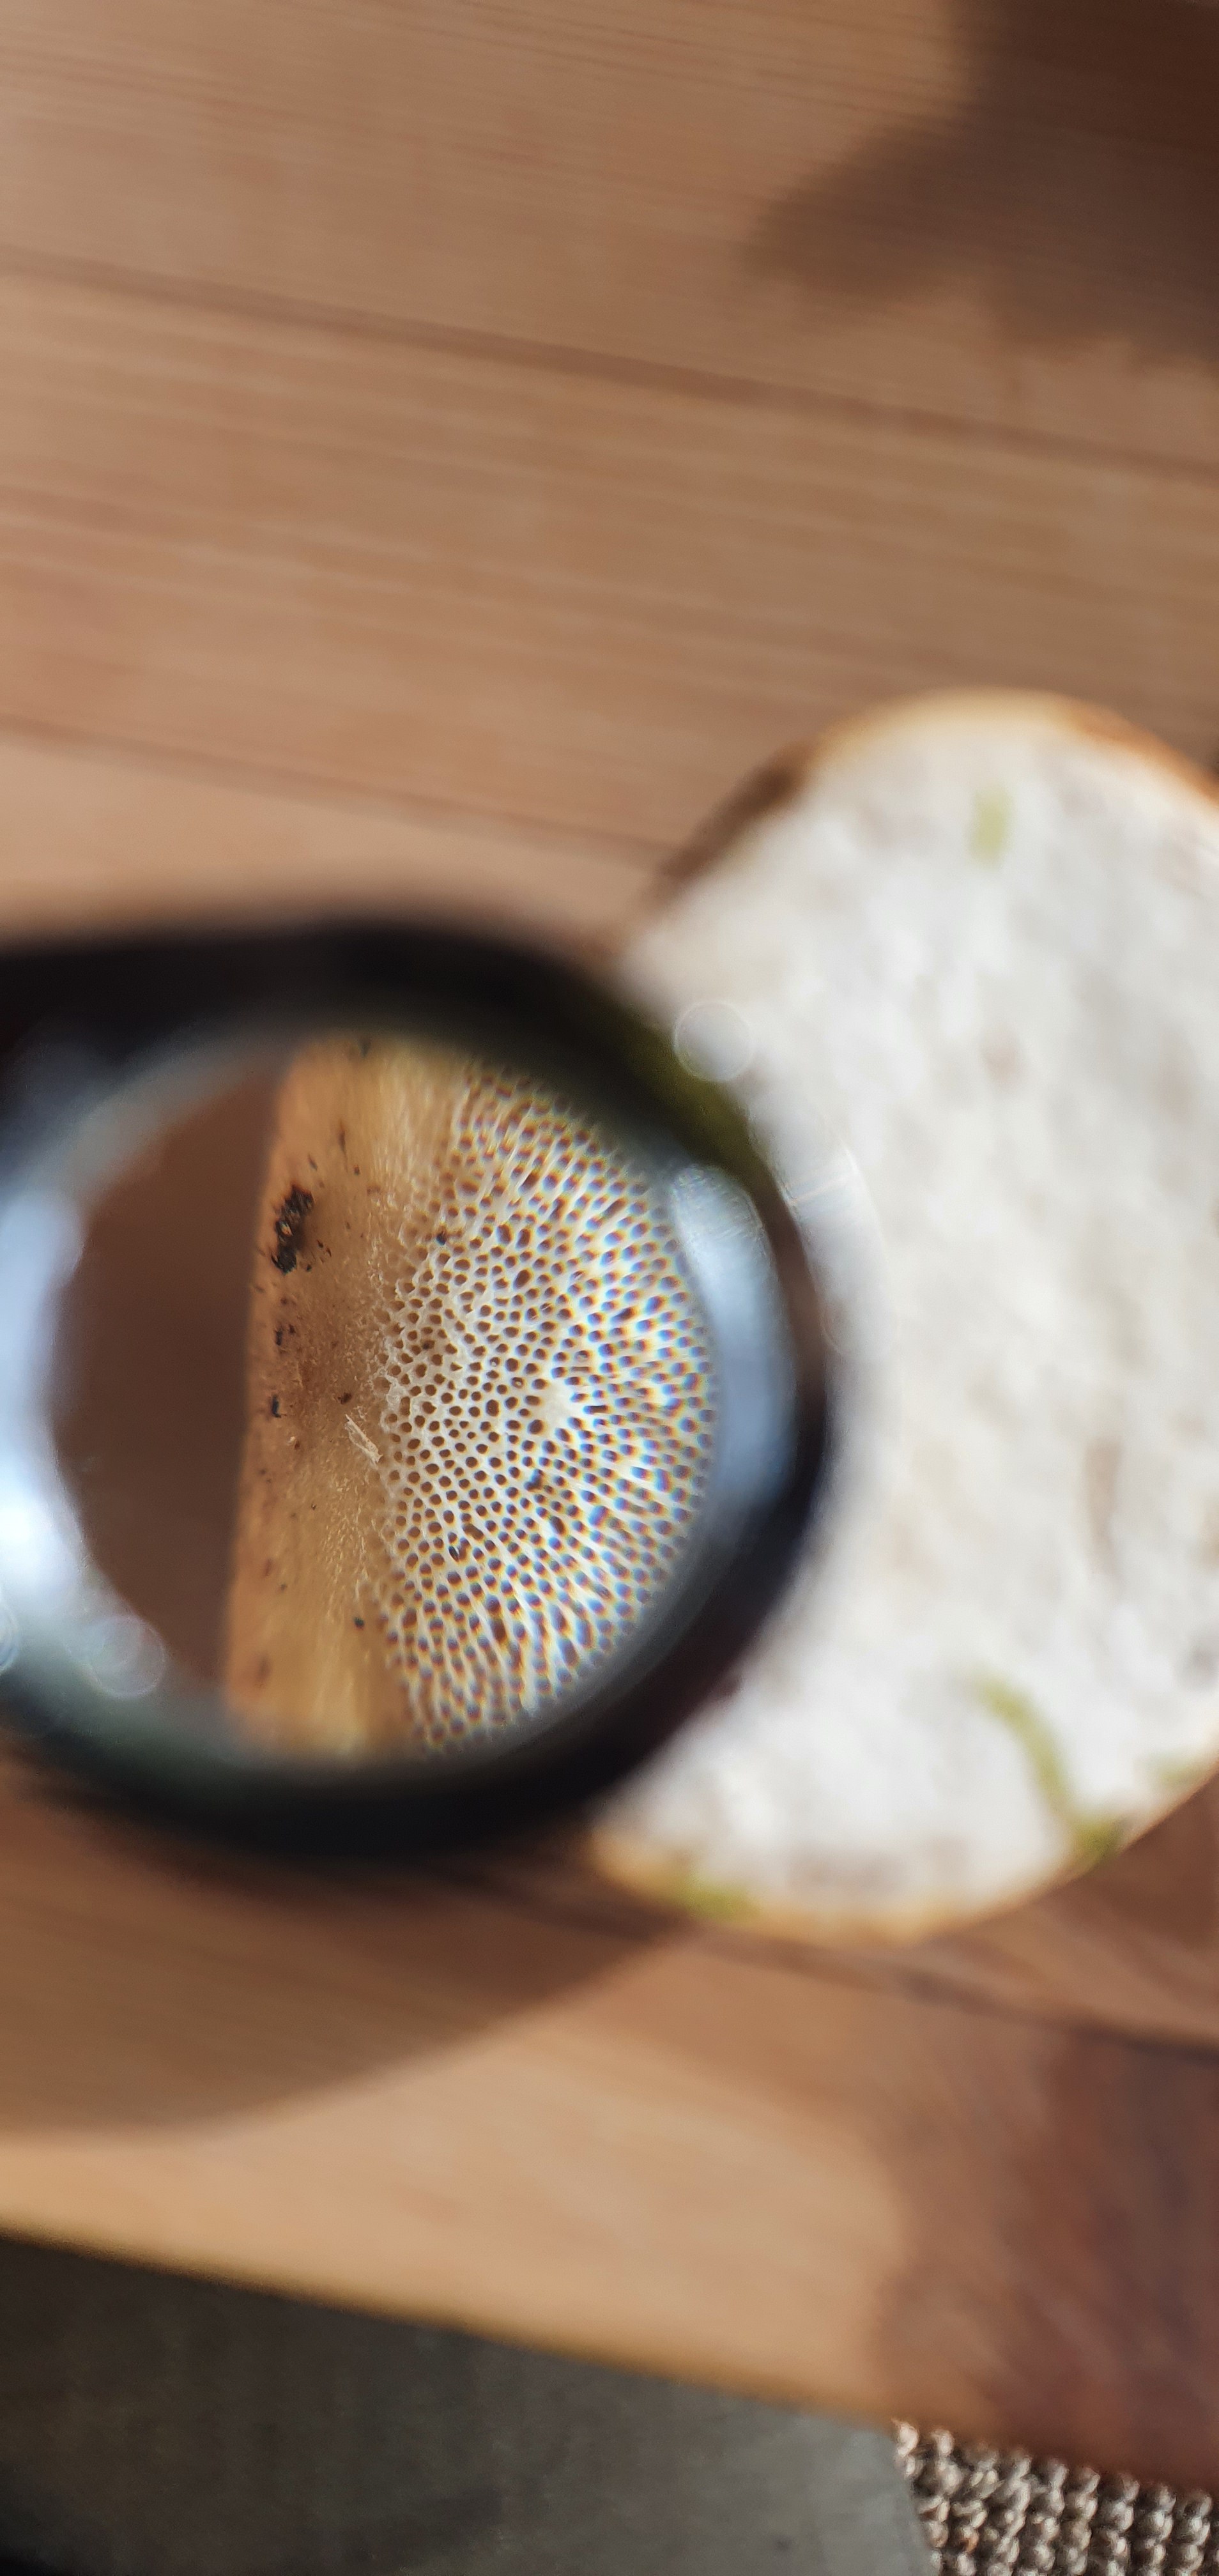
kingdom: Fungi
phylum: Basidiomycota
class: Agaricomycetes
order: Polyporales
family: Fomitopsidaceae
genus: Fomitopsis
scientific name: Fomitopsis betulina
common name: birkeporesvamp
